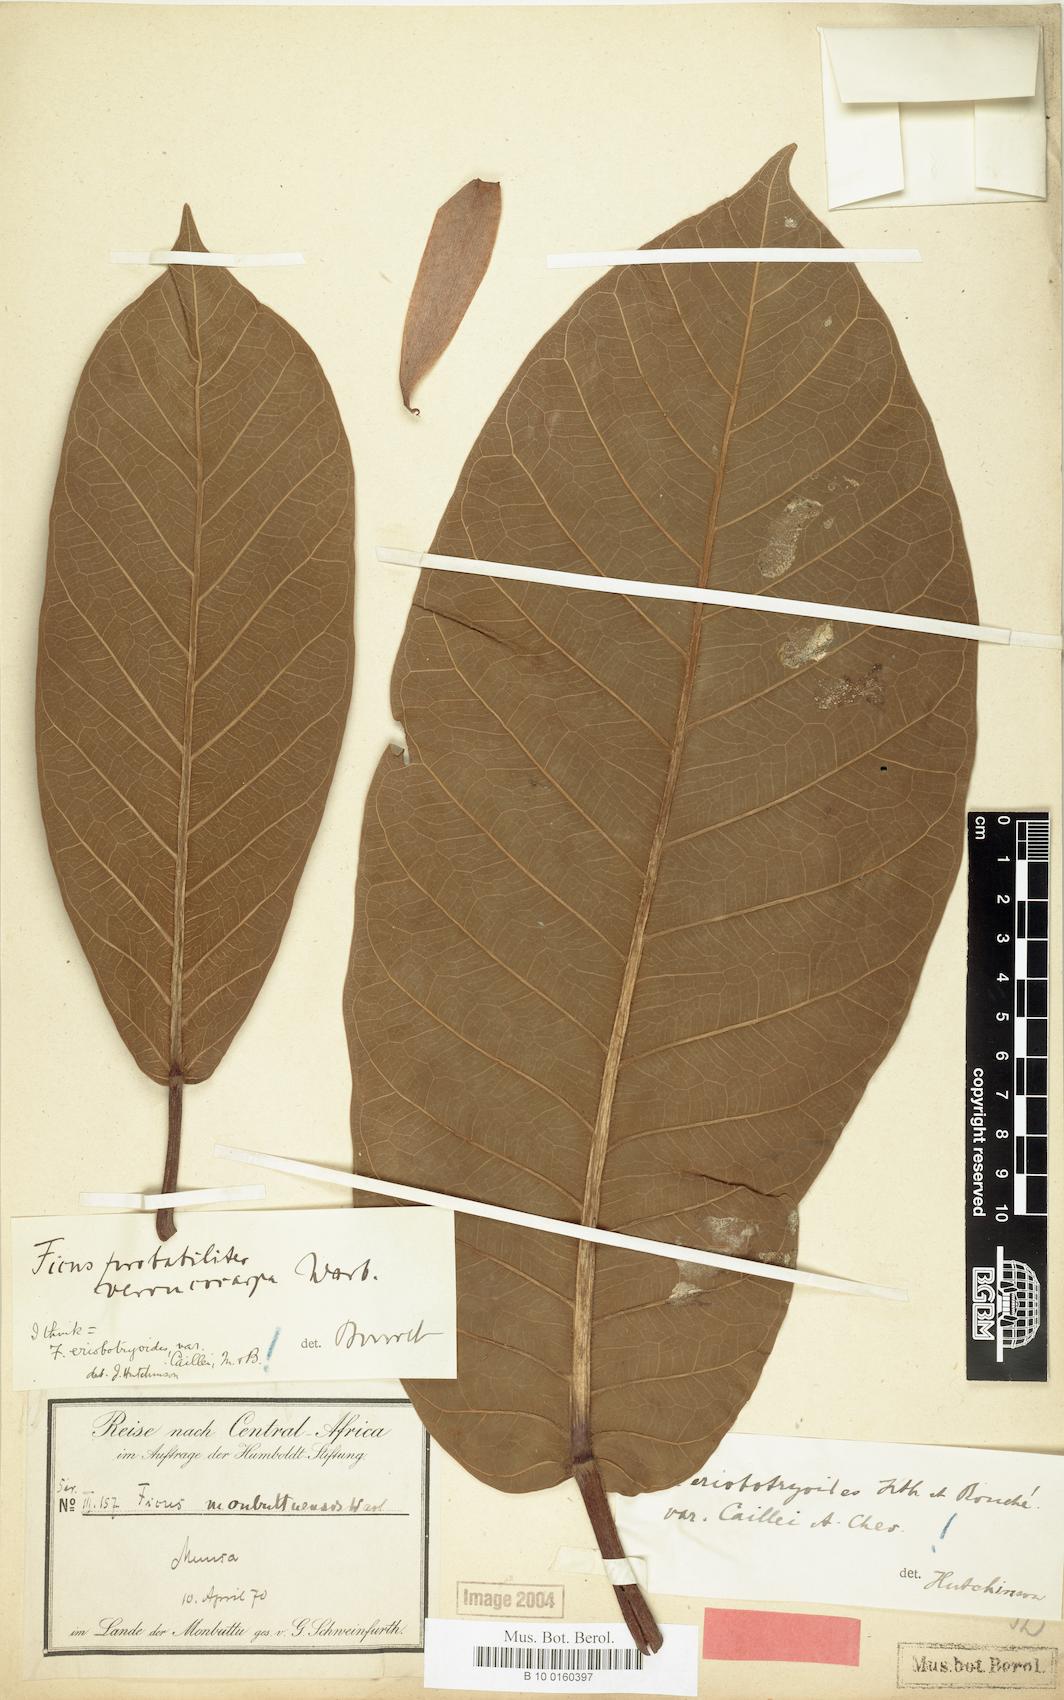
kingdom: Plantae
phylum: Tracheophyta
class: Magnoliopsida
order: Rosales
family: Moraceae
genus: Ficus
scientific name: Ficus saussureana
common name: Loquat-leaf fig
